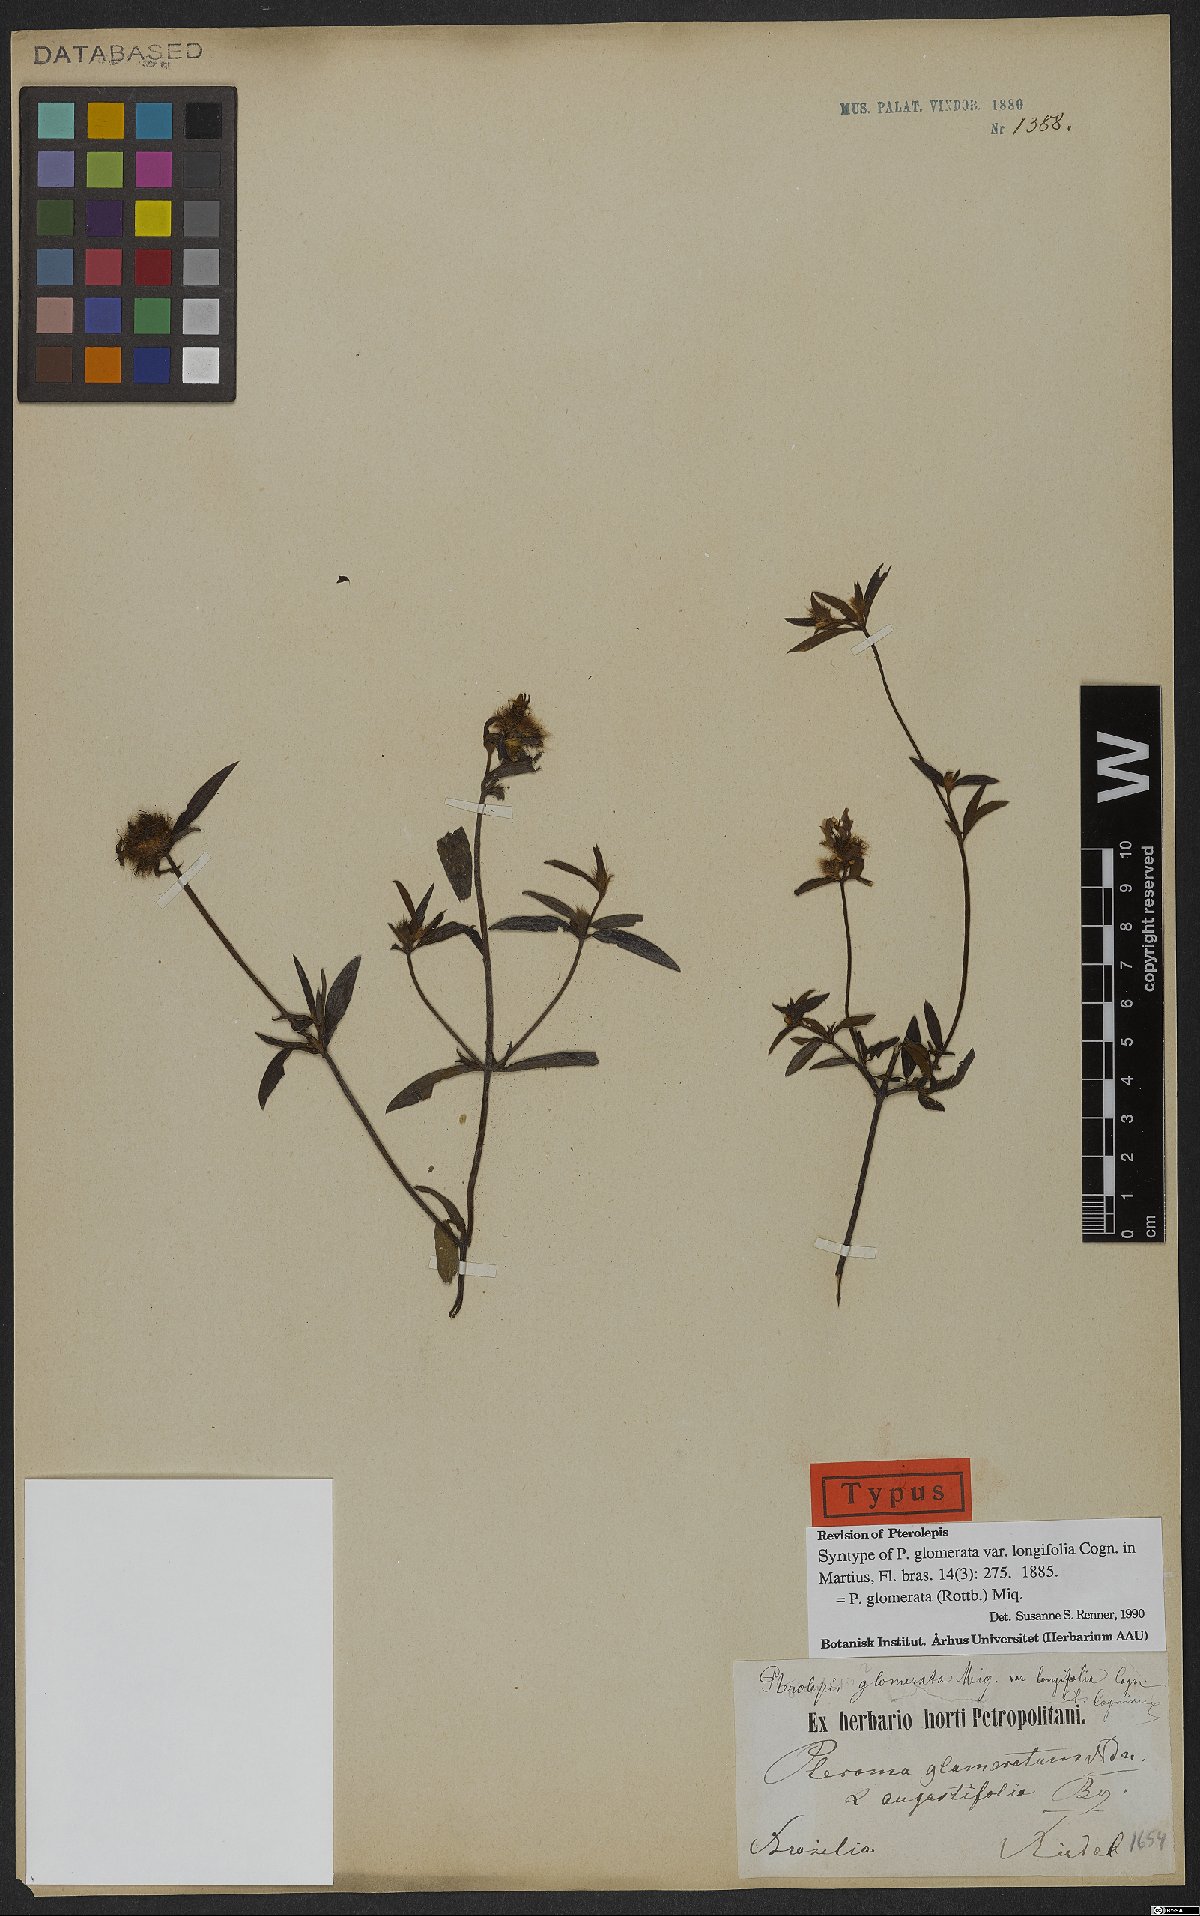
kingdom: Plantae
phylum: Tracheophyta
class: Magnoliopsida
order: Myrtales
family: Melastomataceae
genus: Pterolepis
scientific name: Pterolepis glomerata
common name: False meadowbeauty
